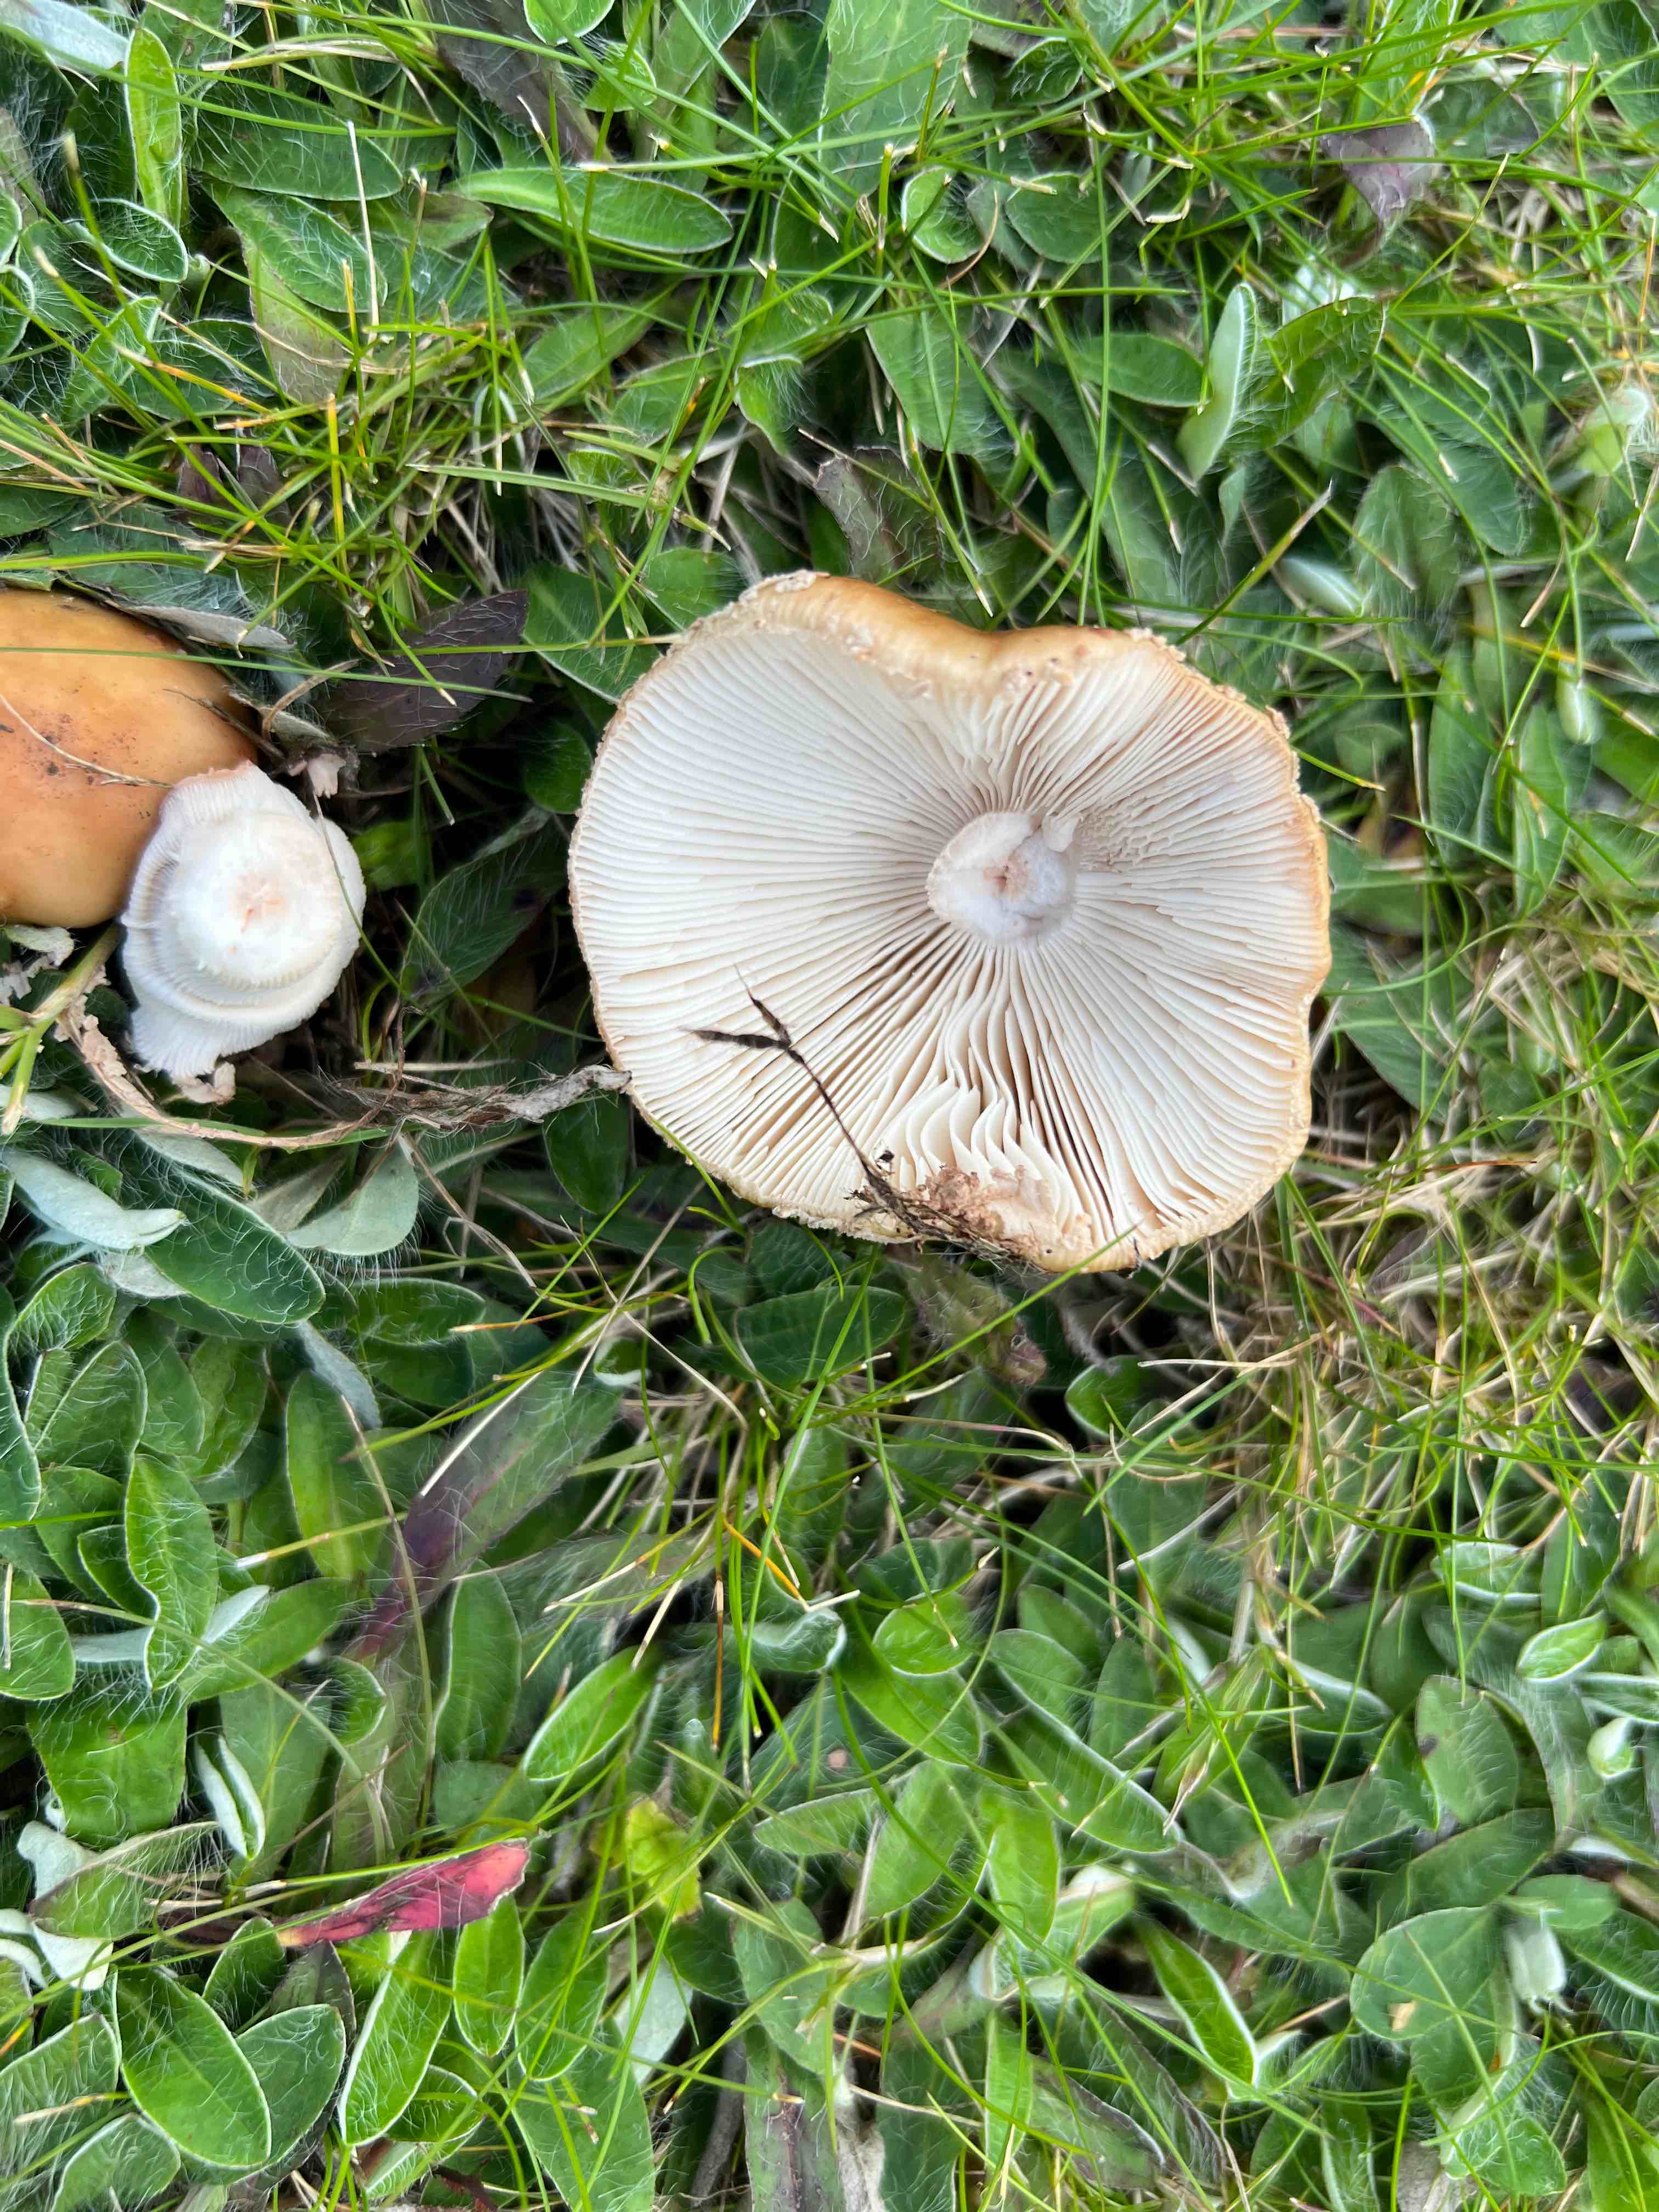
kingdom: Fungi
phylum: Basidiomycota
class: Agaricomycetes
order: Agaricales
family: Amanitaceae
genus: Amanita
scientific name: Amanita rubescens
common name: rødmende fluesvamp
